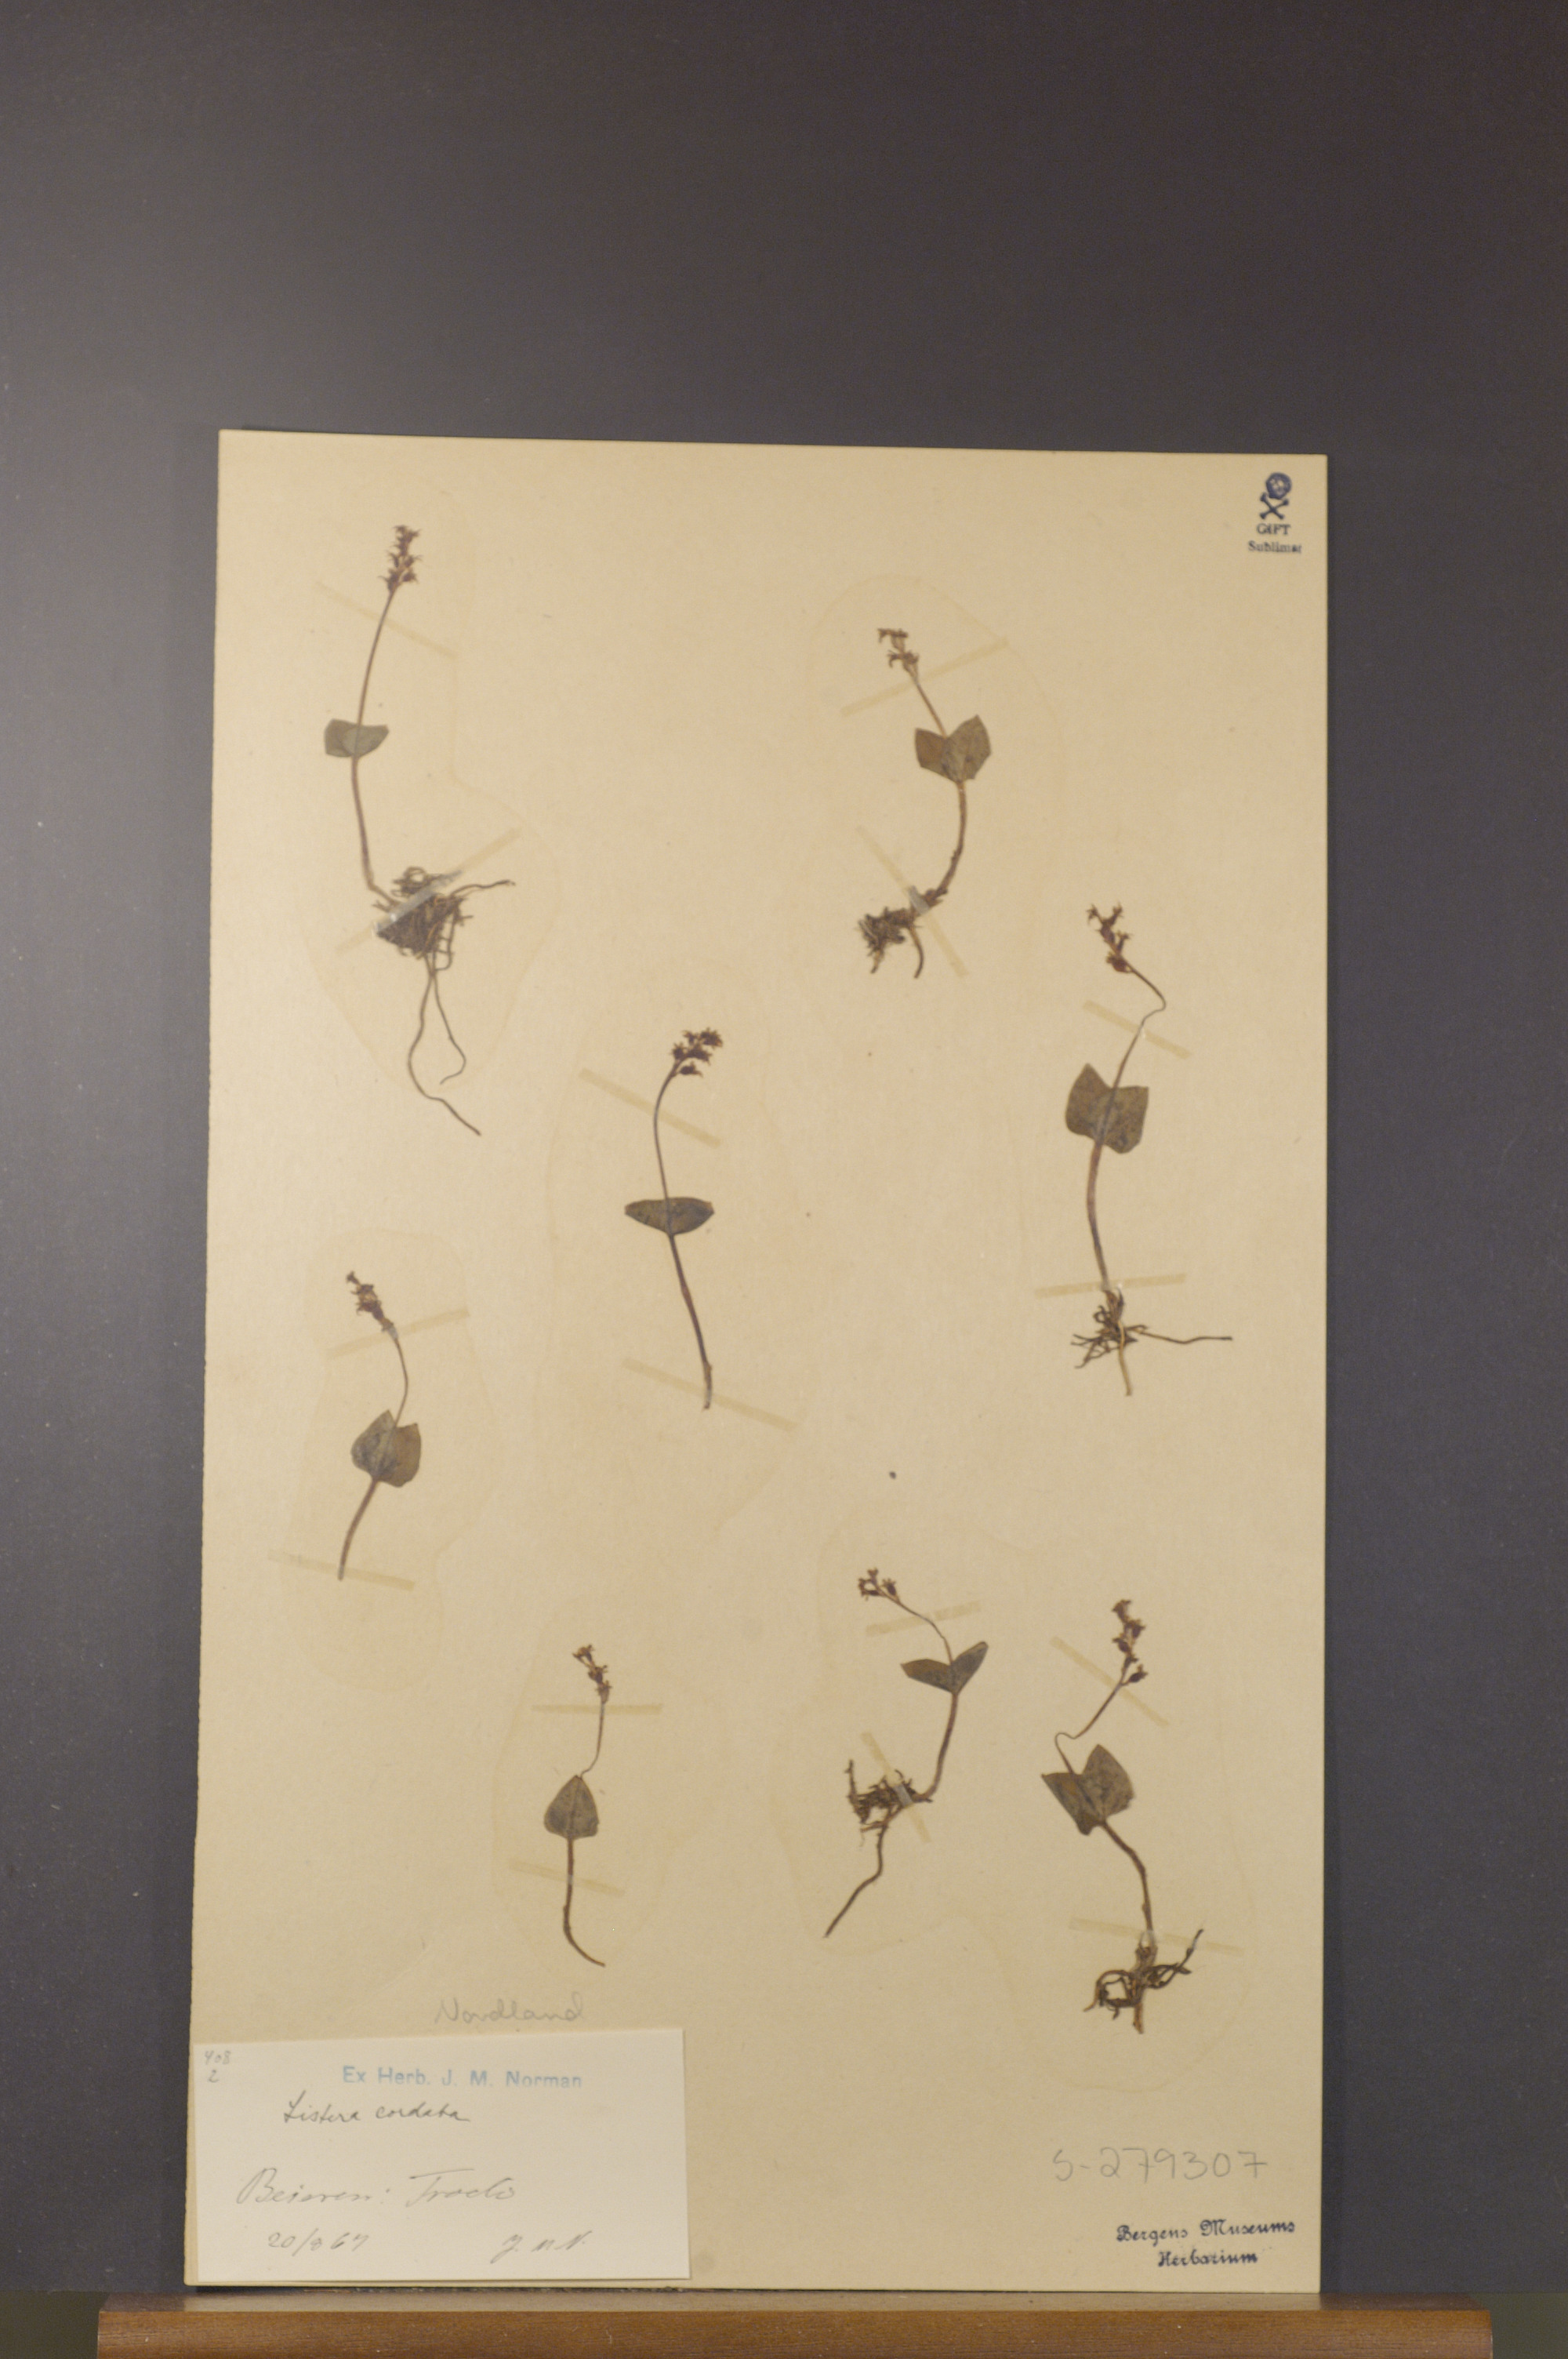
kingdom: Plantae
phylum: Tracheophyta
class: Liliopsida
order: Asparagales
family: Orchidaceae
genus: Neottia
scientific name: Neottia cordata
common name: Lesser twayblade
